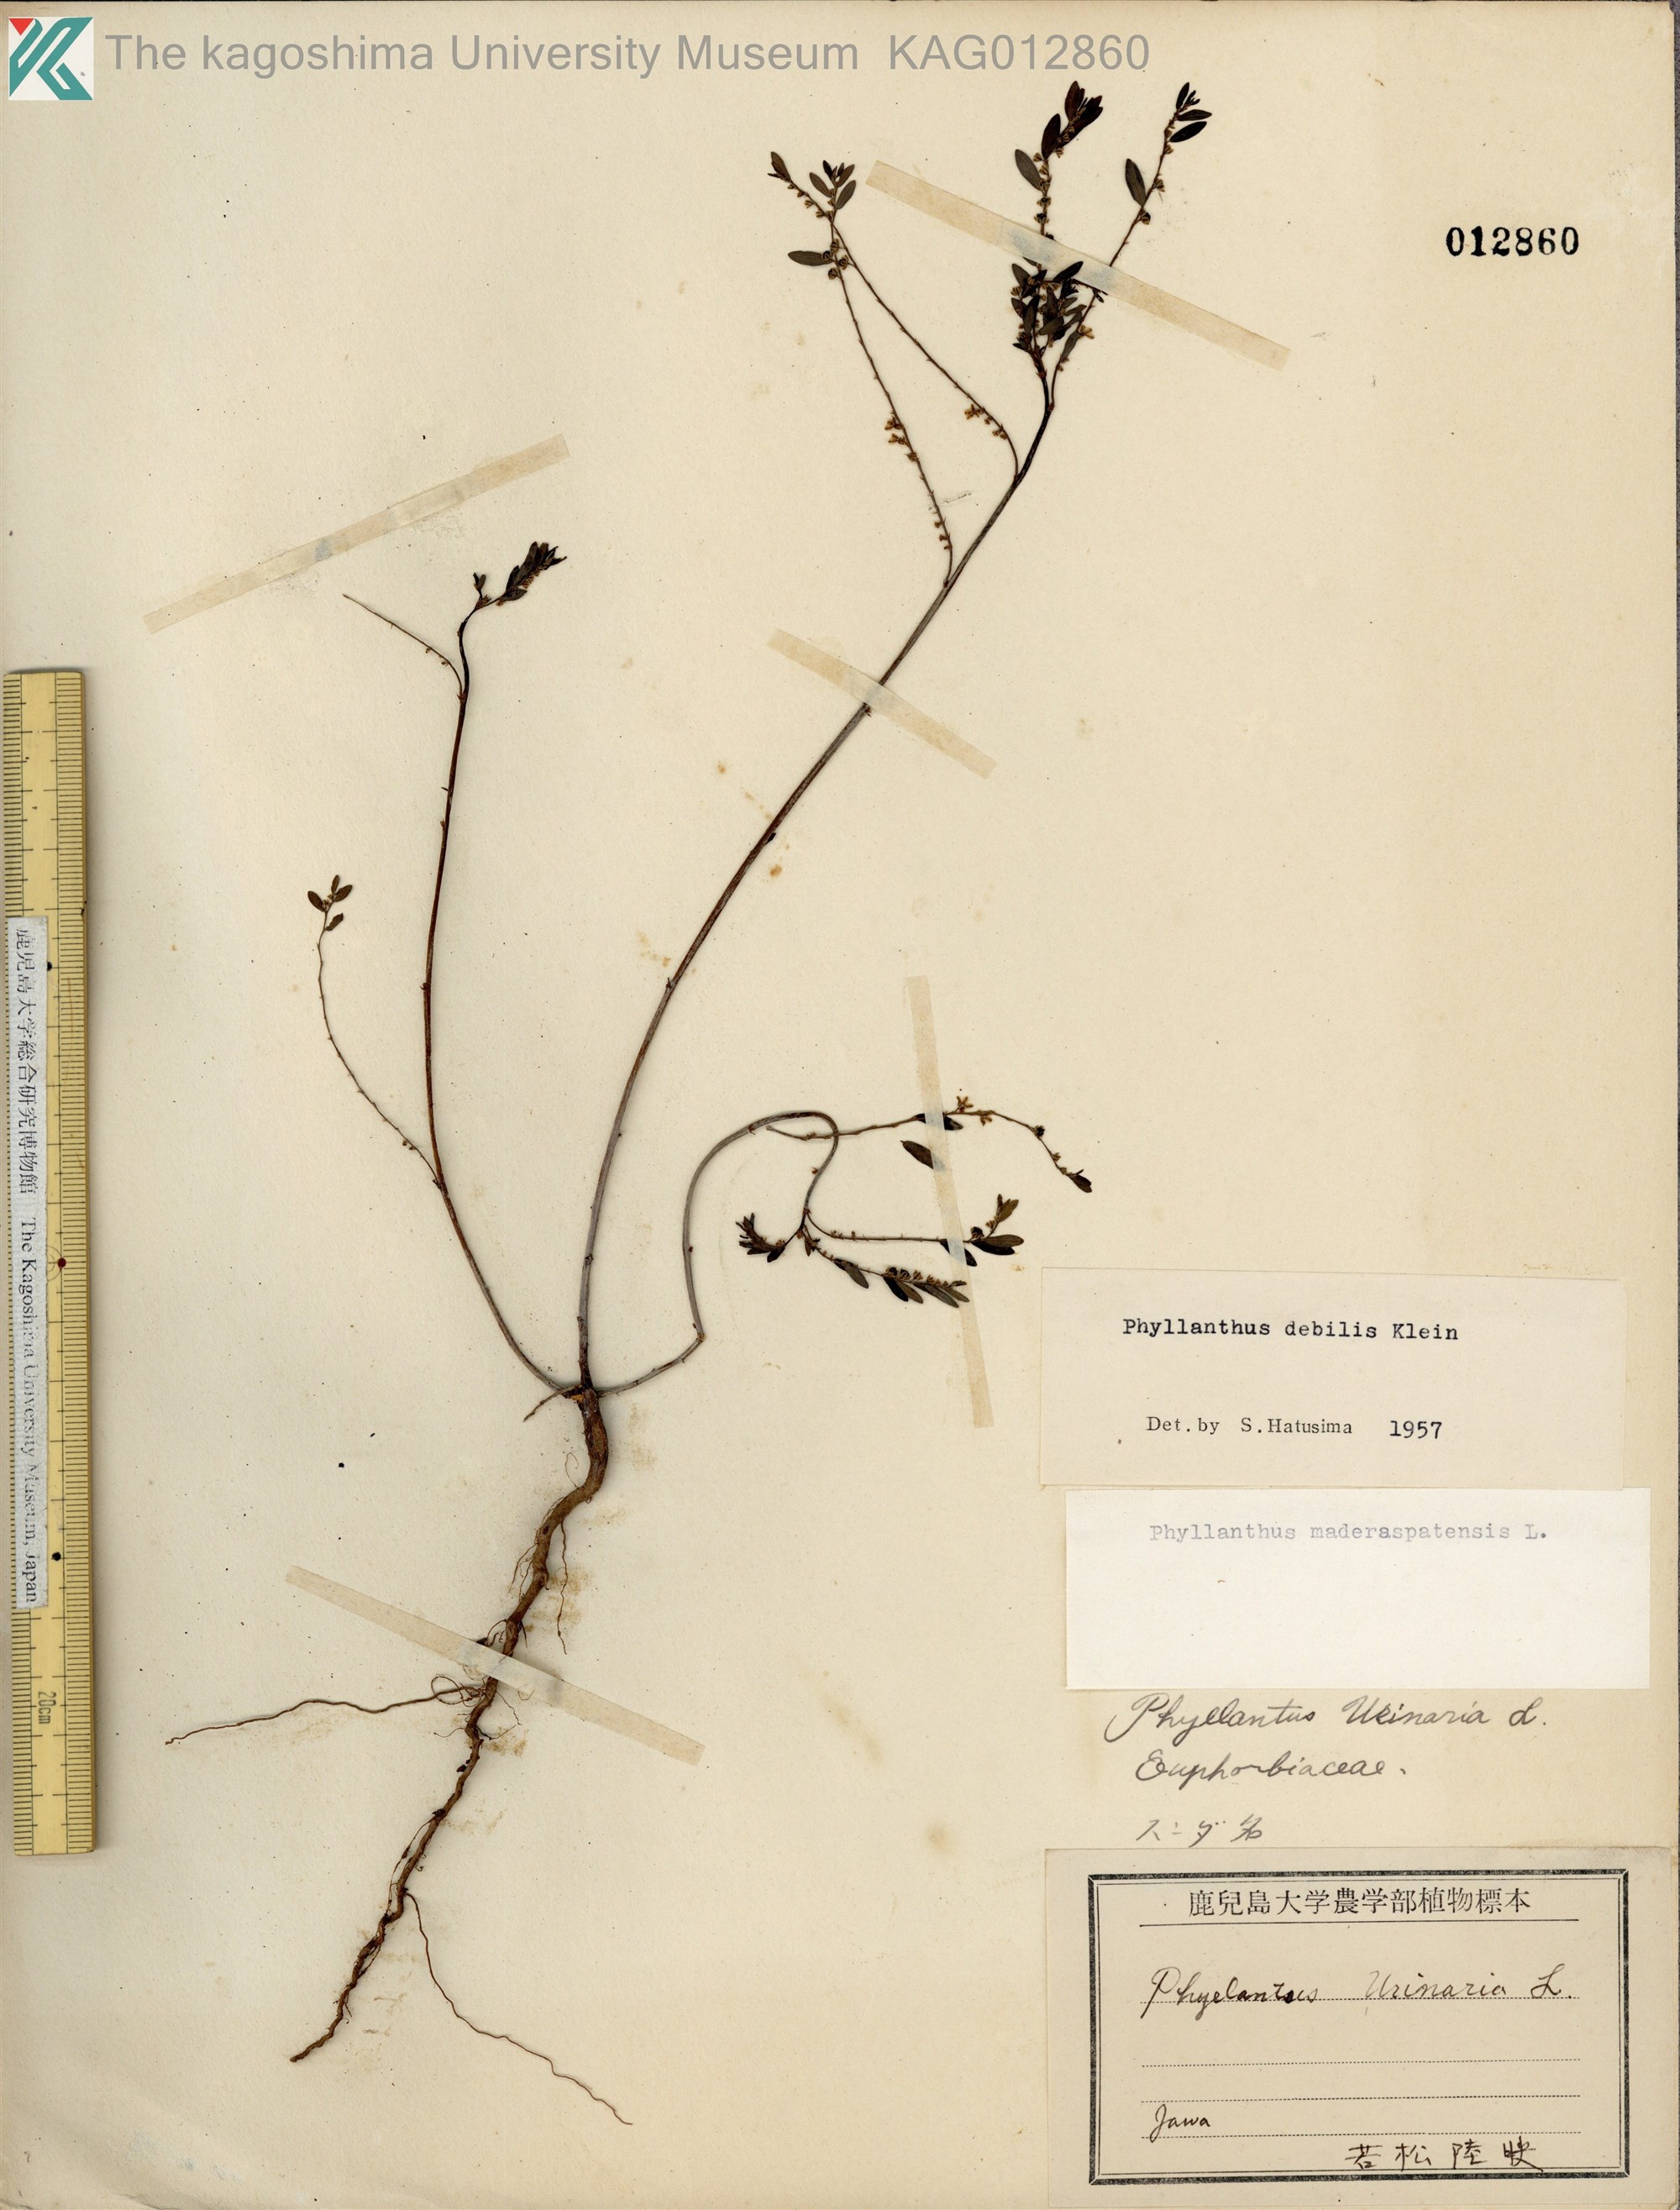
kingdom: Plantae
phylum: Tracheophyta
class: Magnoliopsida
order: Malpighiales
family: Phyllanthaceae
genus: Phyllanthus
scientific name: Phyllanthus debilis
